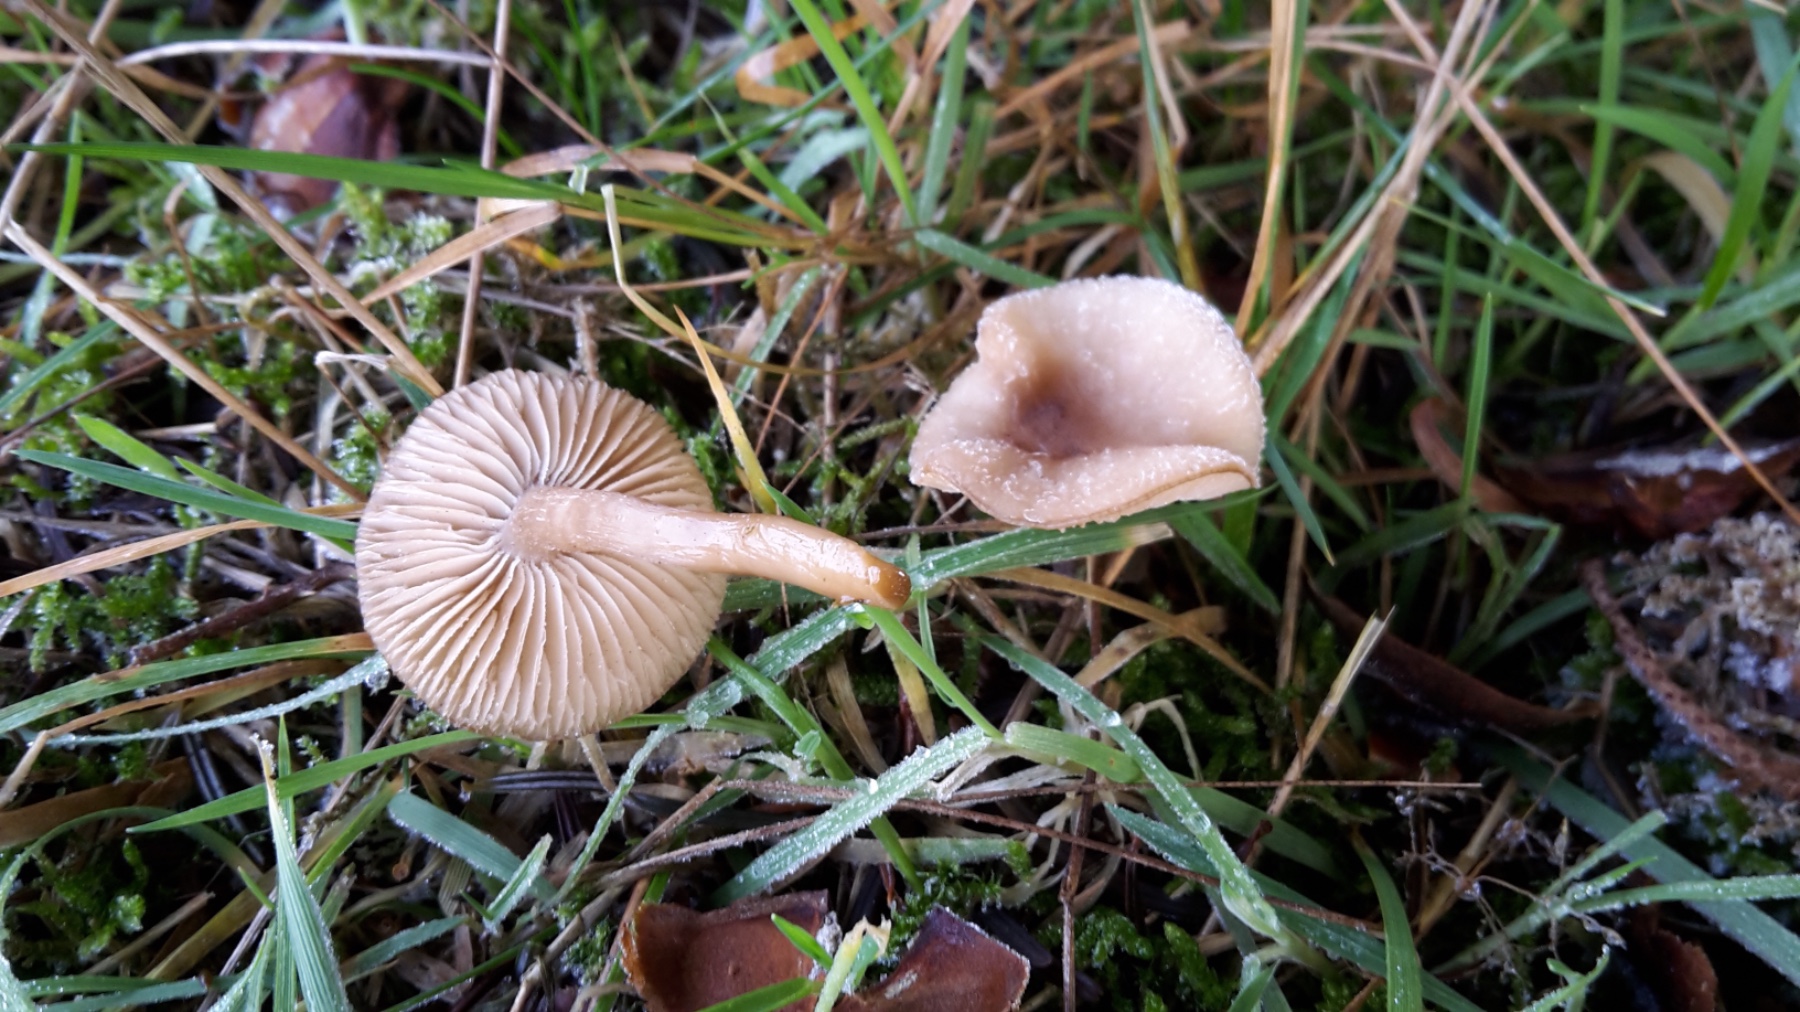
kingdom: Fungi
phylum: Basidiomycota
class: Agaricomycetes
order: Agaricales
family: Tricholomataceae
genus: Clitocybe
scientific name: Clitocybe fragrans
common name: vellugtende tragthat
